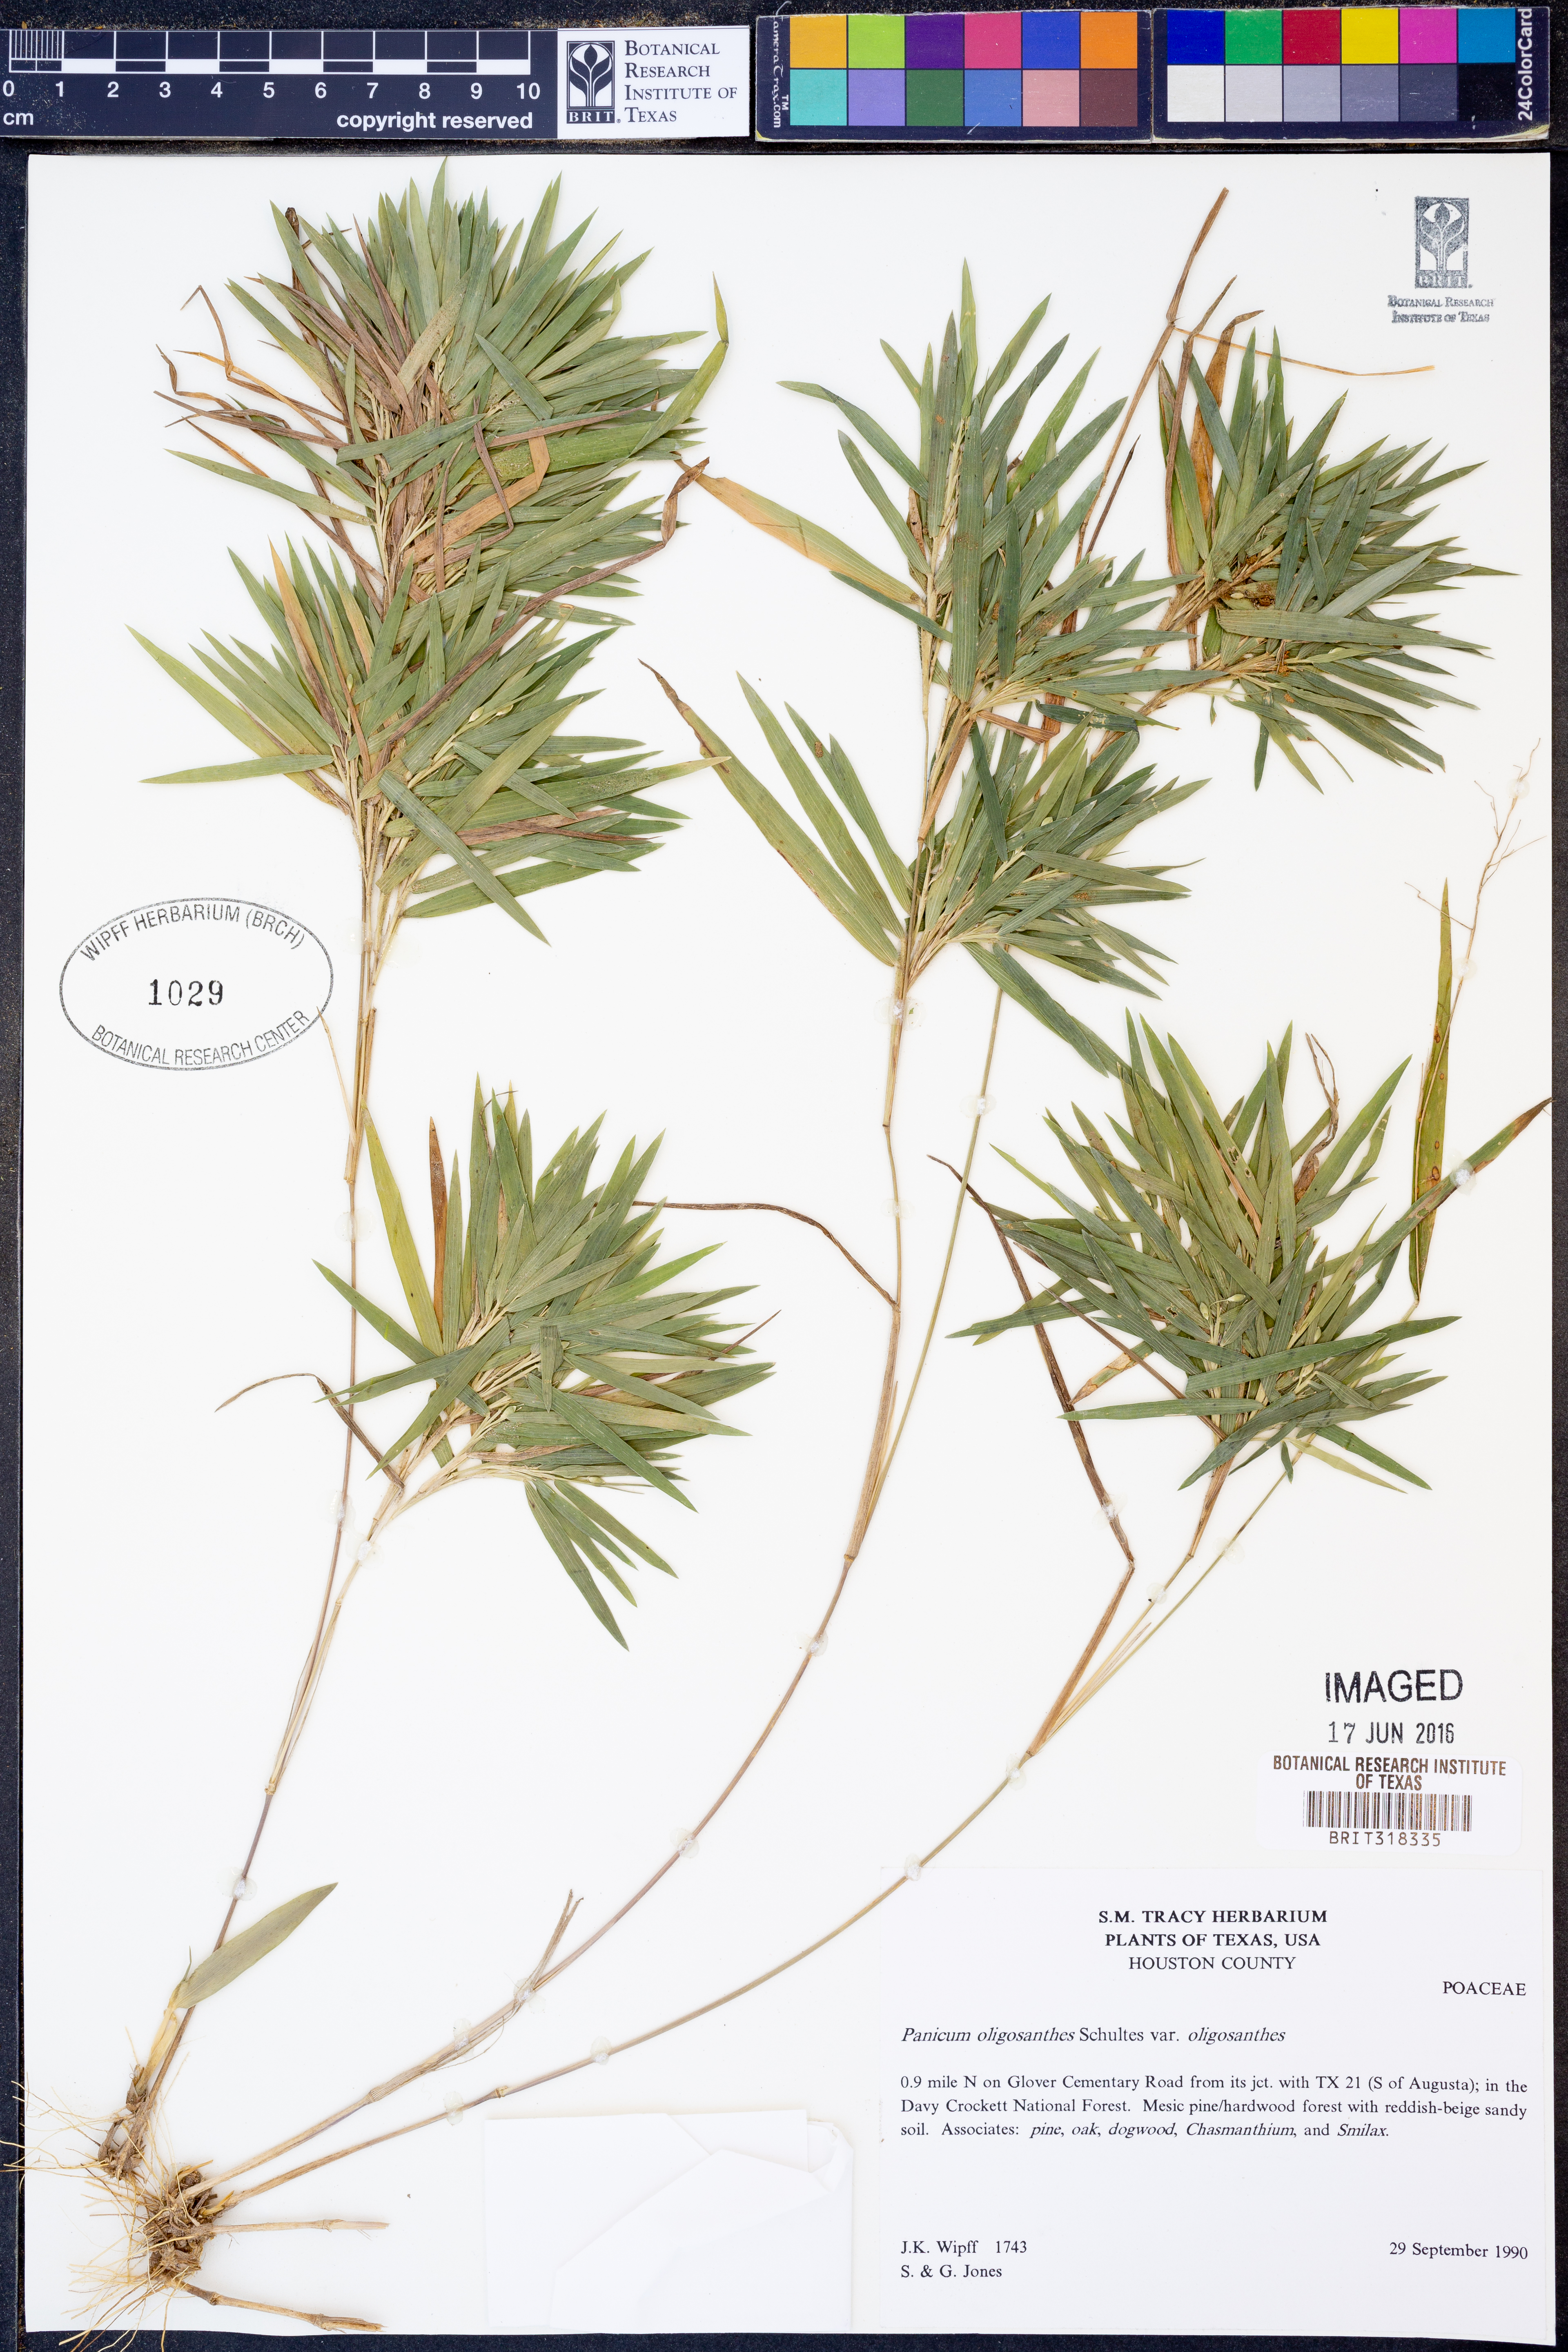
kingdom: Plantae
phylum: Tracheophyta
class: Liliopsida
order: Poales
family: Poaceae
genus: Dichanthelium
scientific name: Dichanthelium oligosanthes
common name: Few-anther obscuregrass
